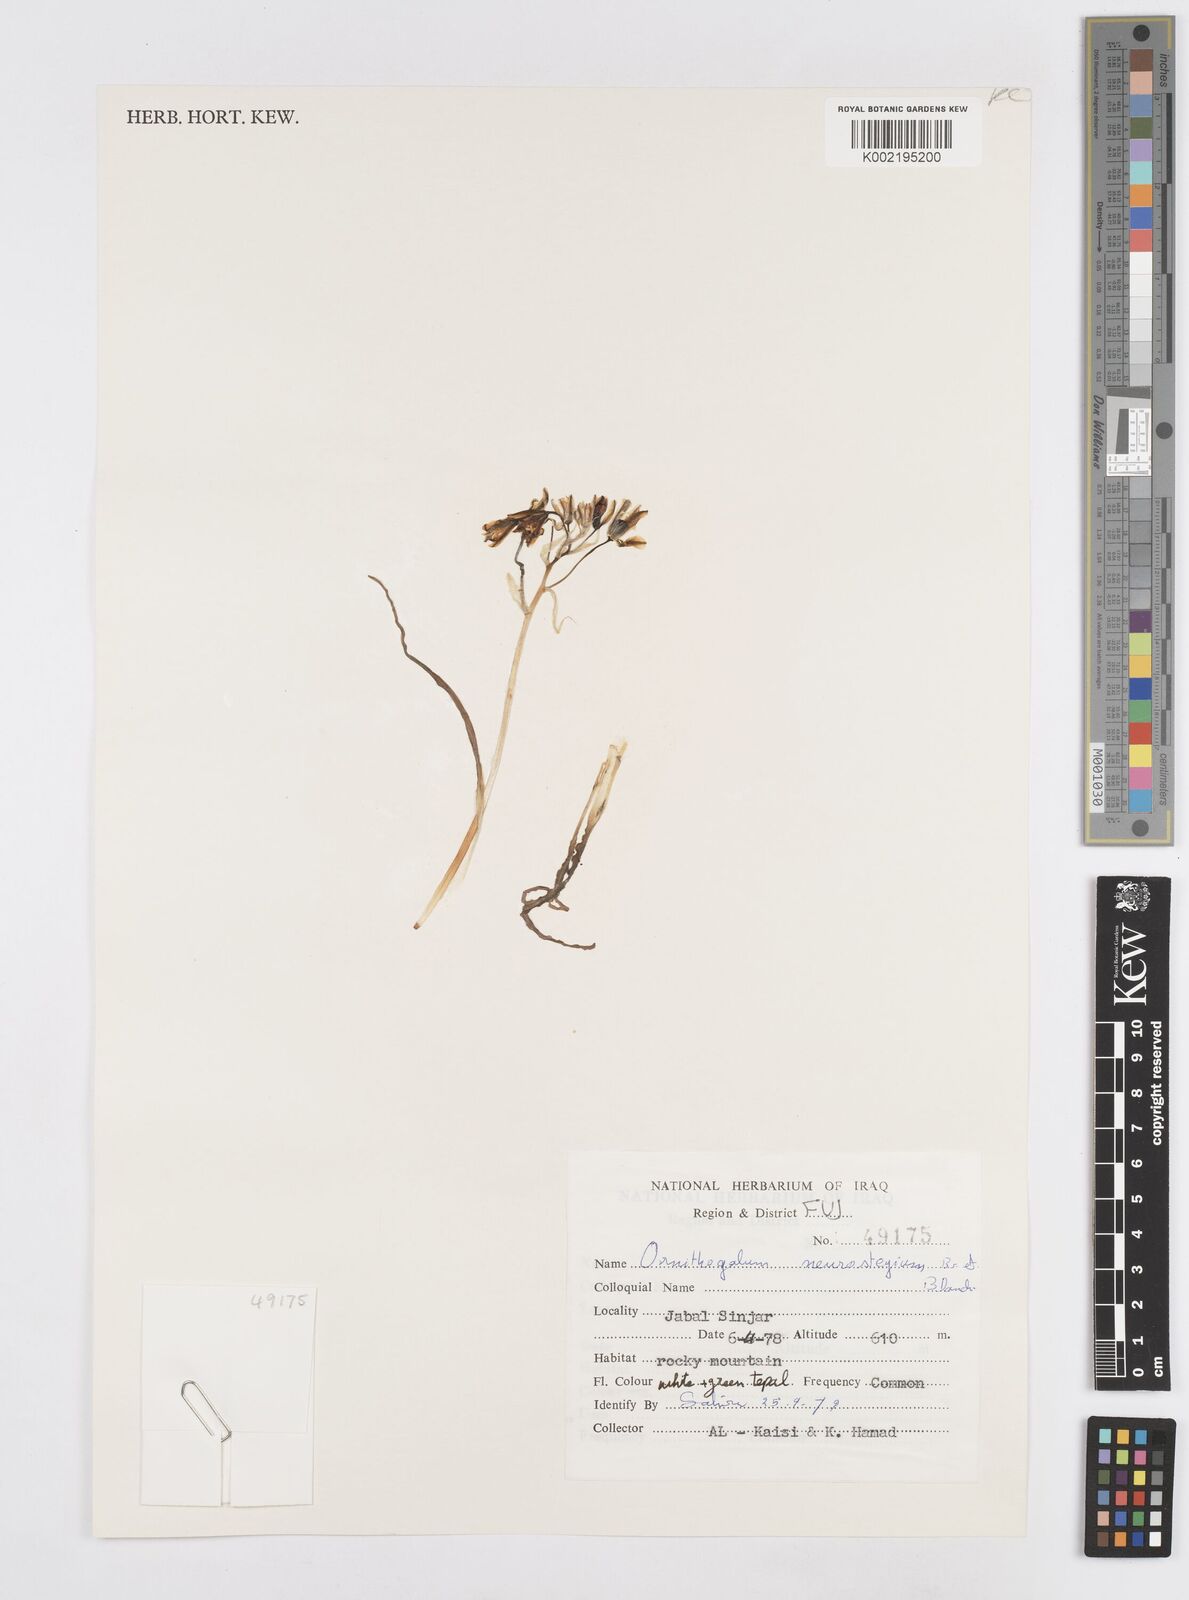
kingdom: Plantae
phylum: Tracheophyta
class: Liliopsida
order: Asparagales
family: Asparagaceae
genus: Ornithogalum
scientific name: Ornithogalum neurostegium
